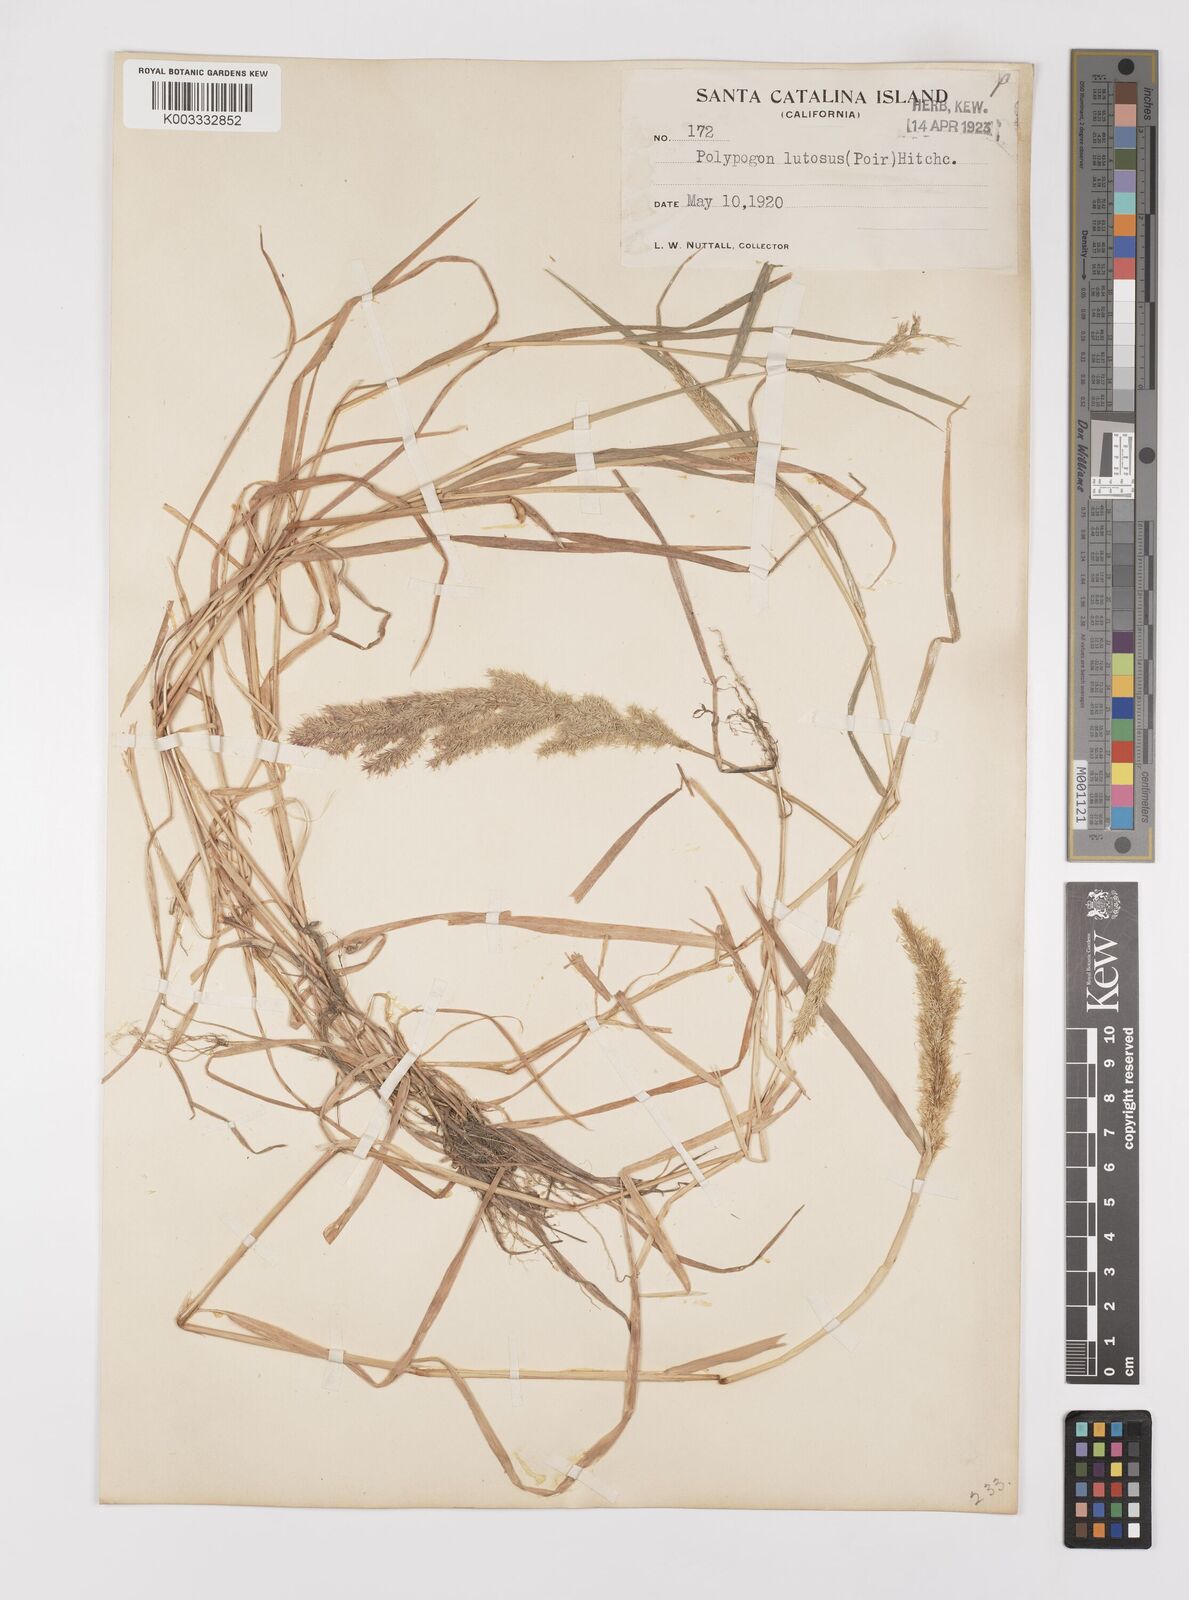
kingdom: Plantae
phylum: Tracheophyta
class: Liliopsida
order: Poales
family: Poaceae
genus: Polypogon
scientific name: Polypogon interruptus
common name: Ditch polypogon
